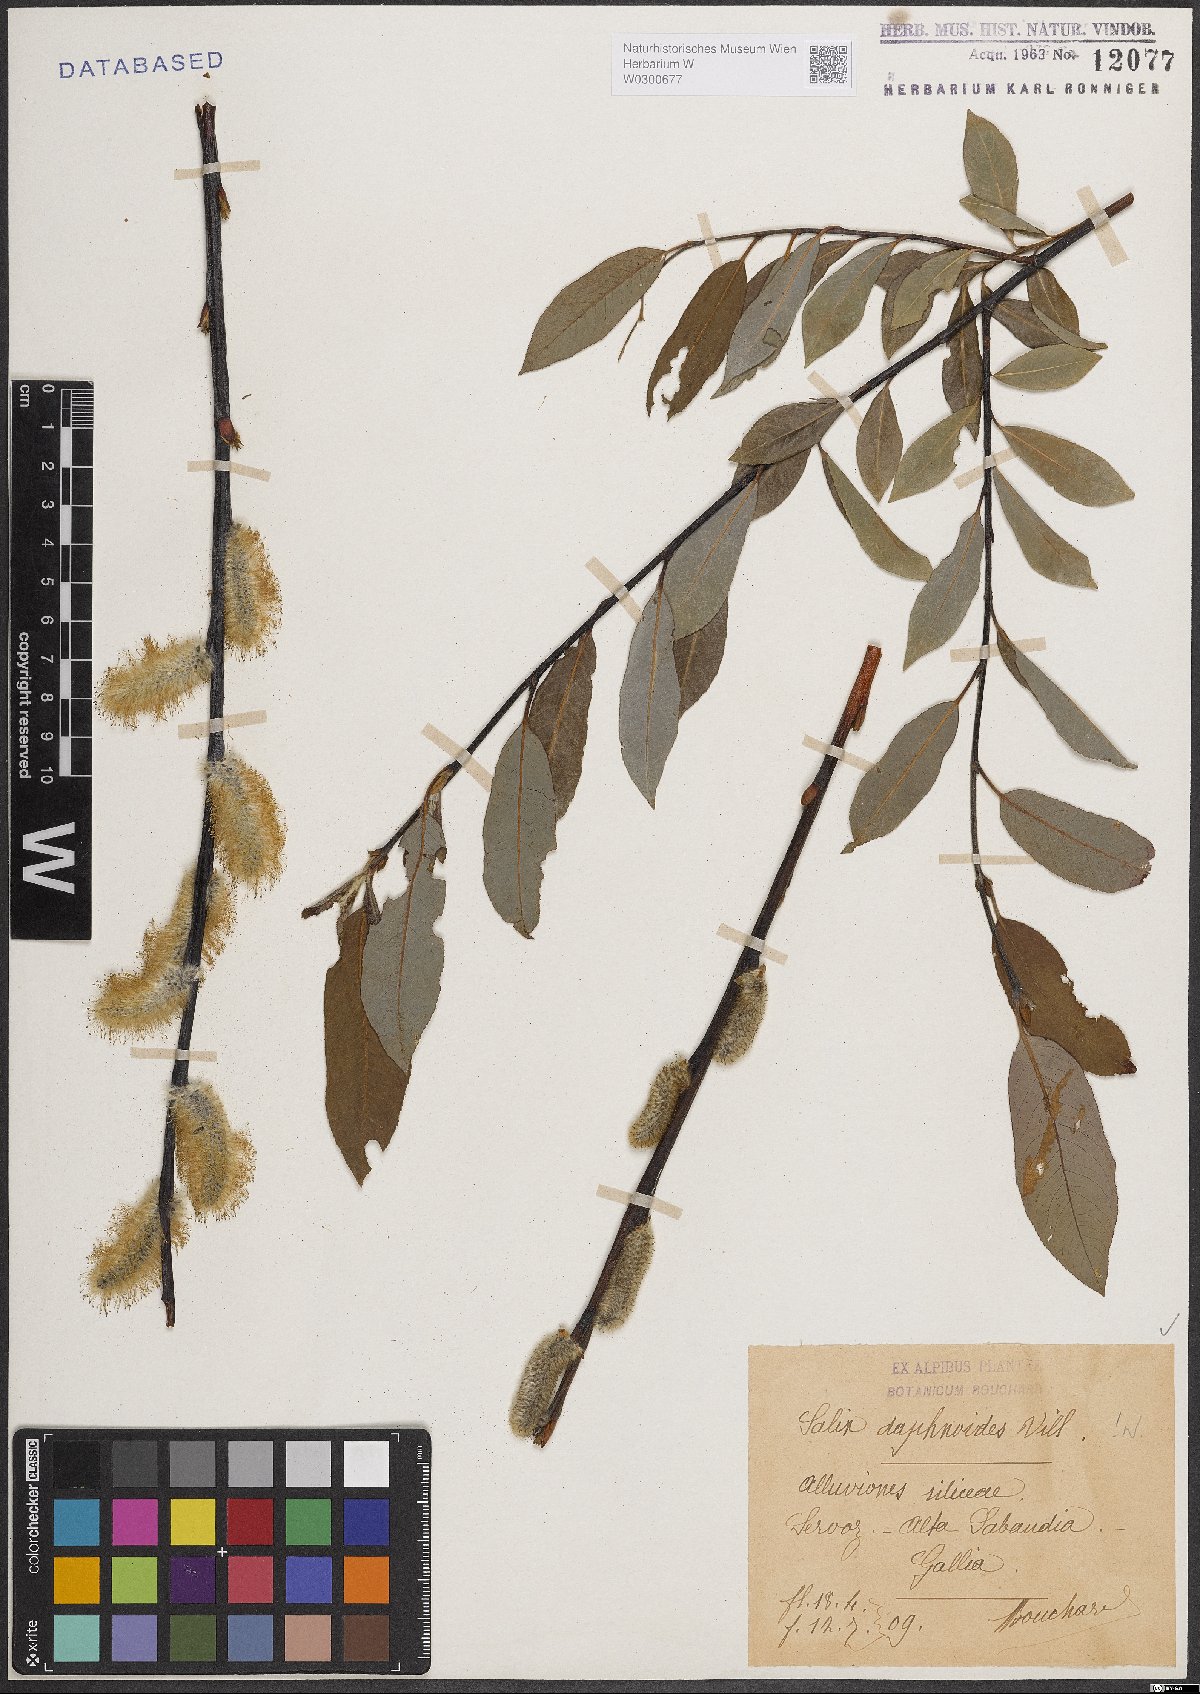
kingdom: Plantae
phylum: Tracheophyta
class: Magnoliopsida
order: Malpighiales
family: Salicaceae
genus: Salix
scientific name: Salix daphnoides
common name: European violet-willow
